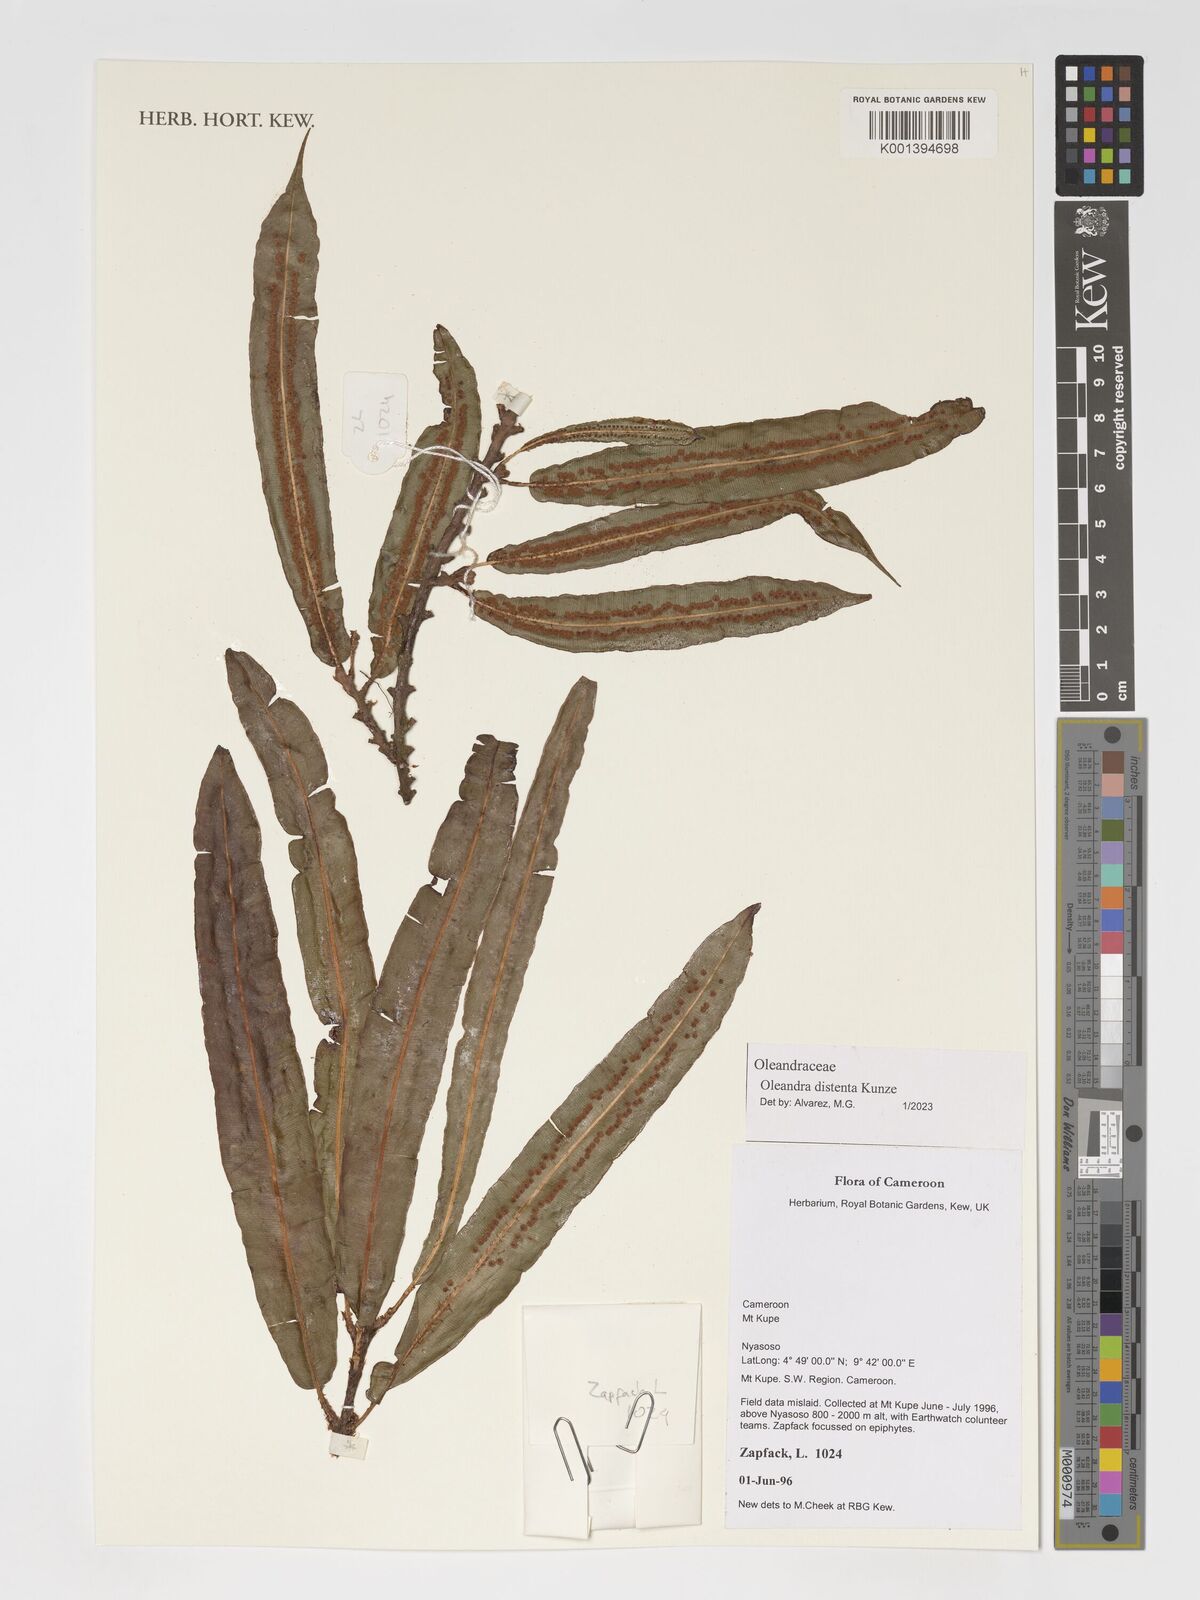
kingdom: Plantae
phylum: Tracheophyta
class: Polypodiopsida
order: Polypodiales
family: Oleandraceae
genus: Oleandra
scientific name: Oleandra distenta
